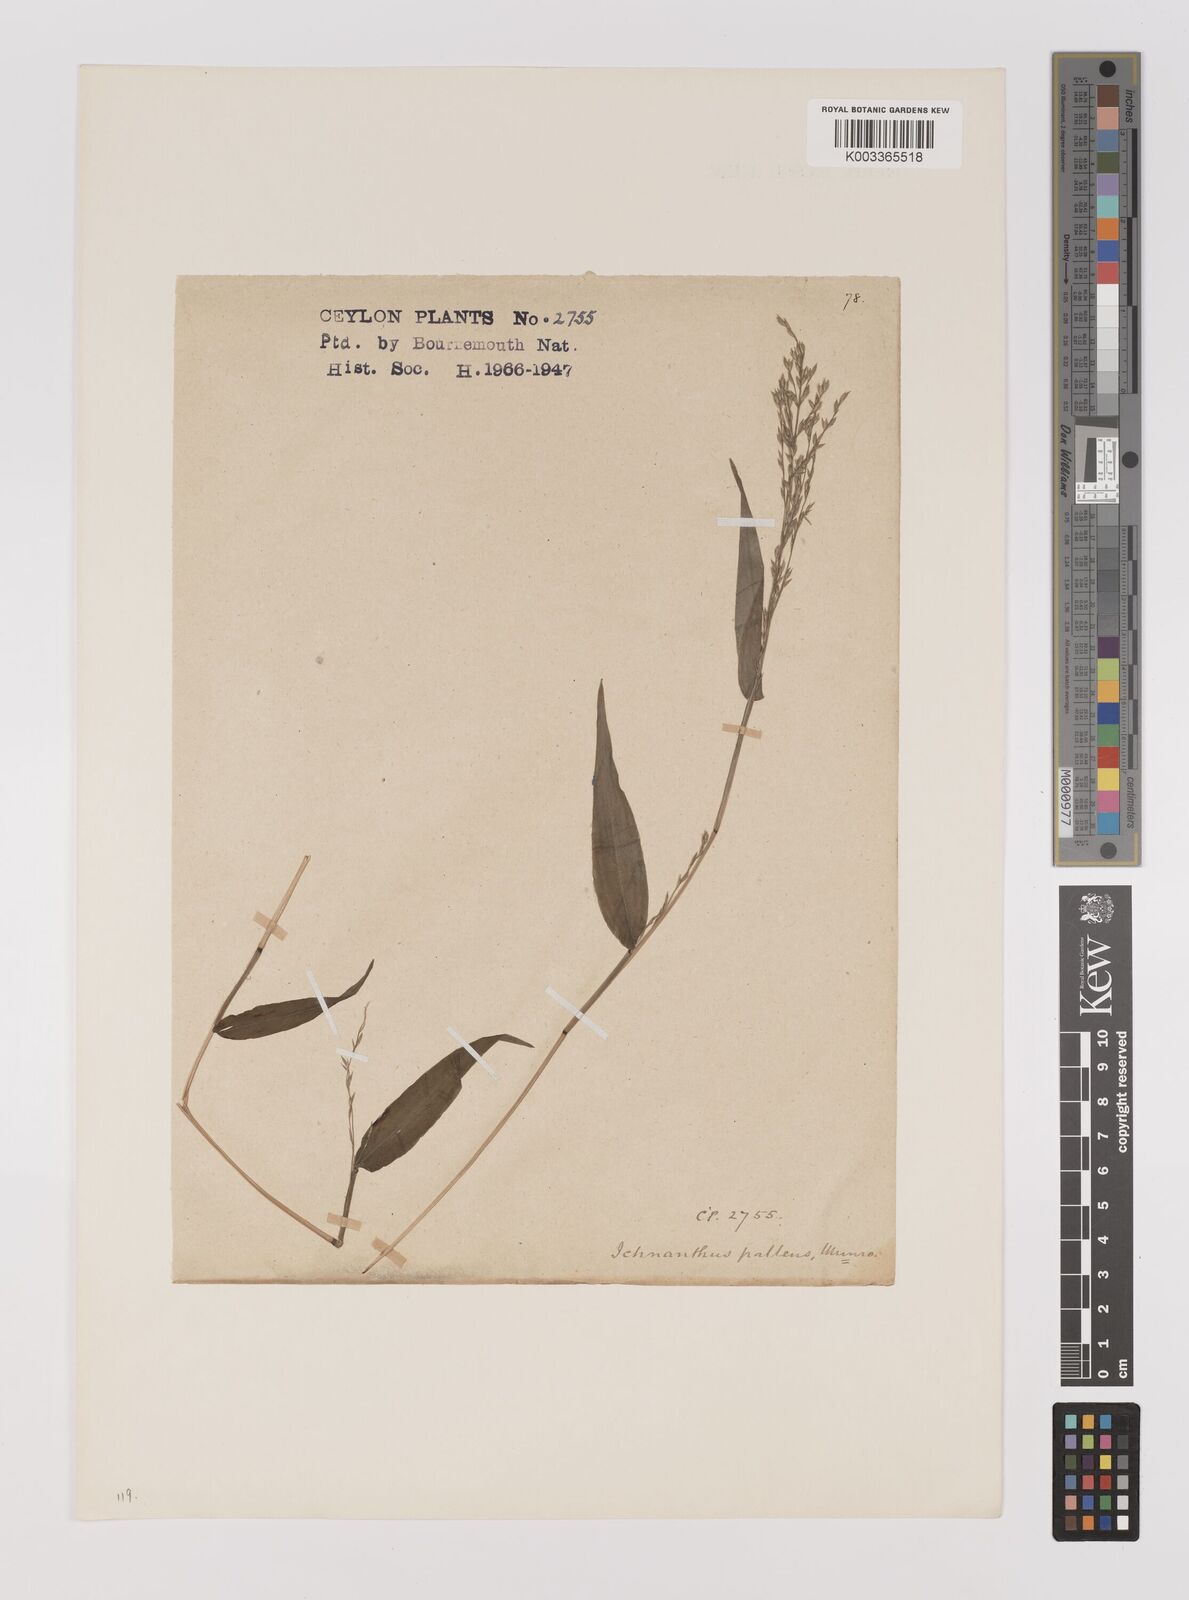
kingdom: Plantae
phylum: Tracheophyta
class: Liliopsida
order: Poales
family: Poaceae
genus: Ichnanthus
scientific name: Ichnanthus pallens
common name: Water grass
